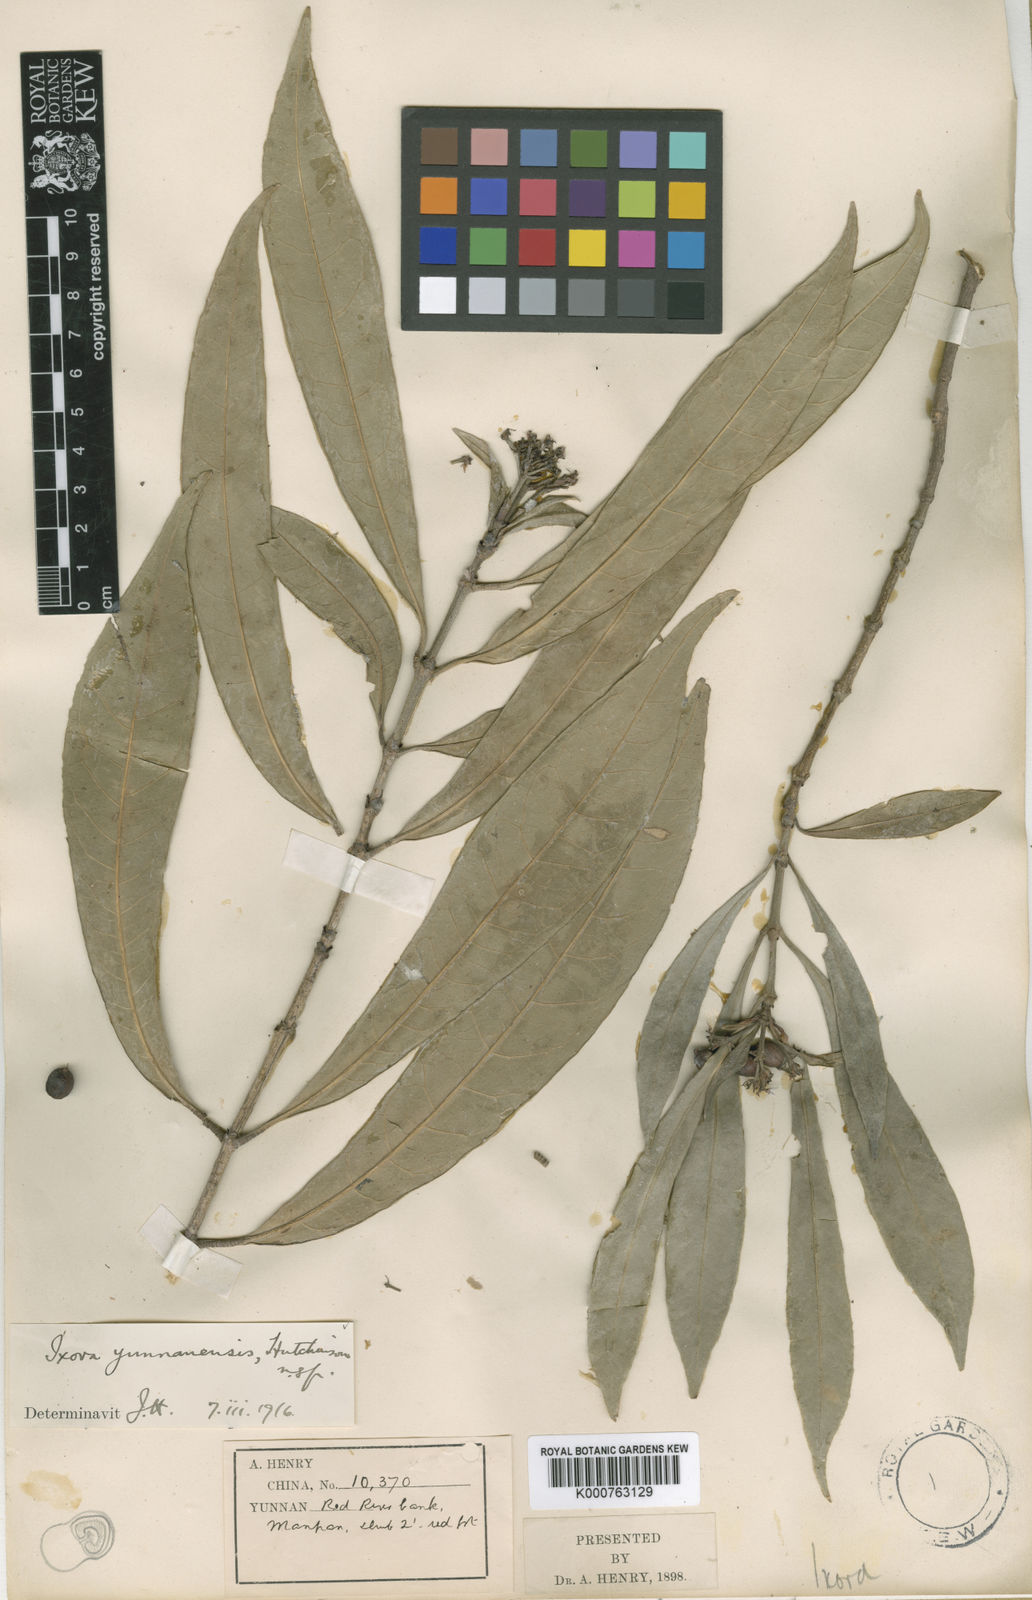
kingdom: Plantae
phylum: Tracheophyta
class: Magnoliopsida
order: Gentianales
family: Rubiaceae
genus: Ixora
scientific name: Ixora yunnanensis
